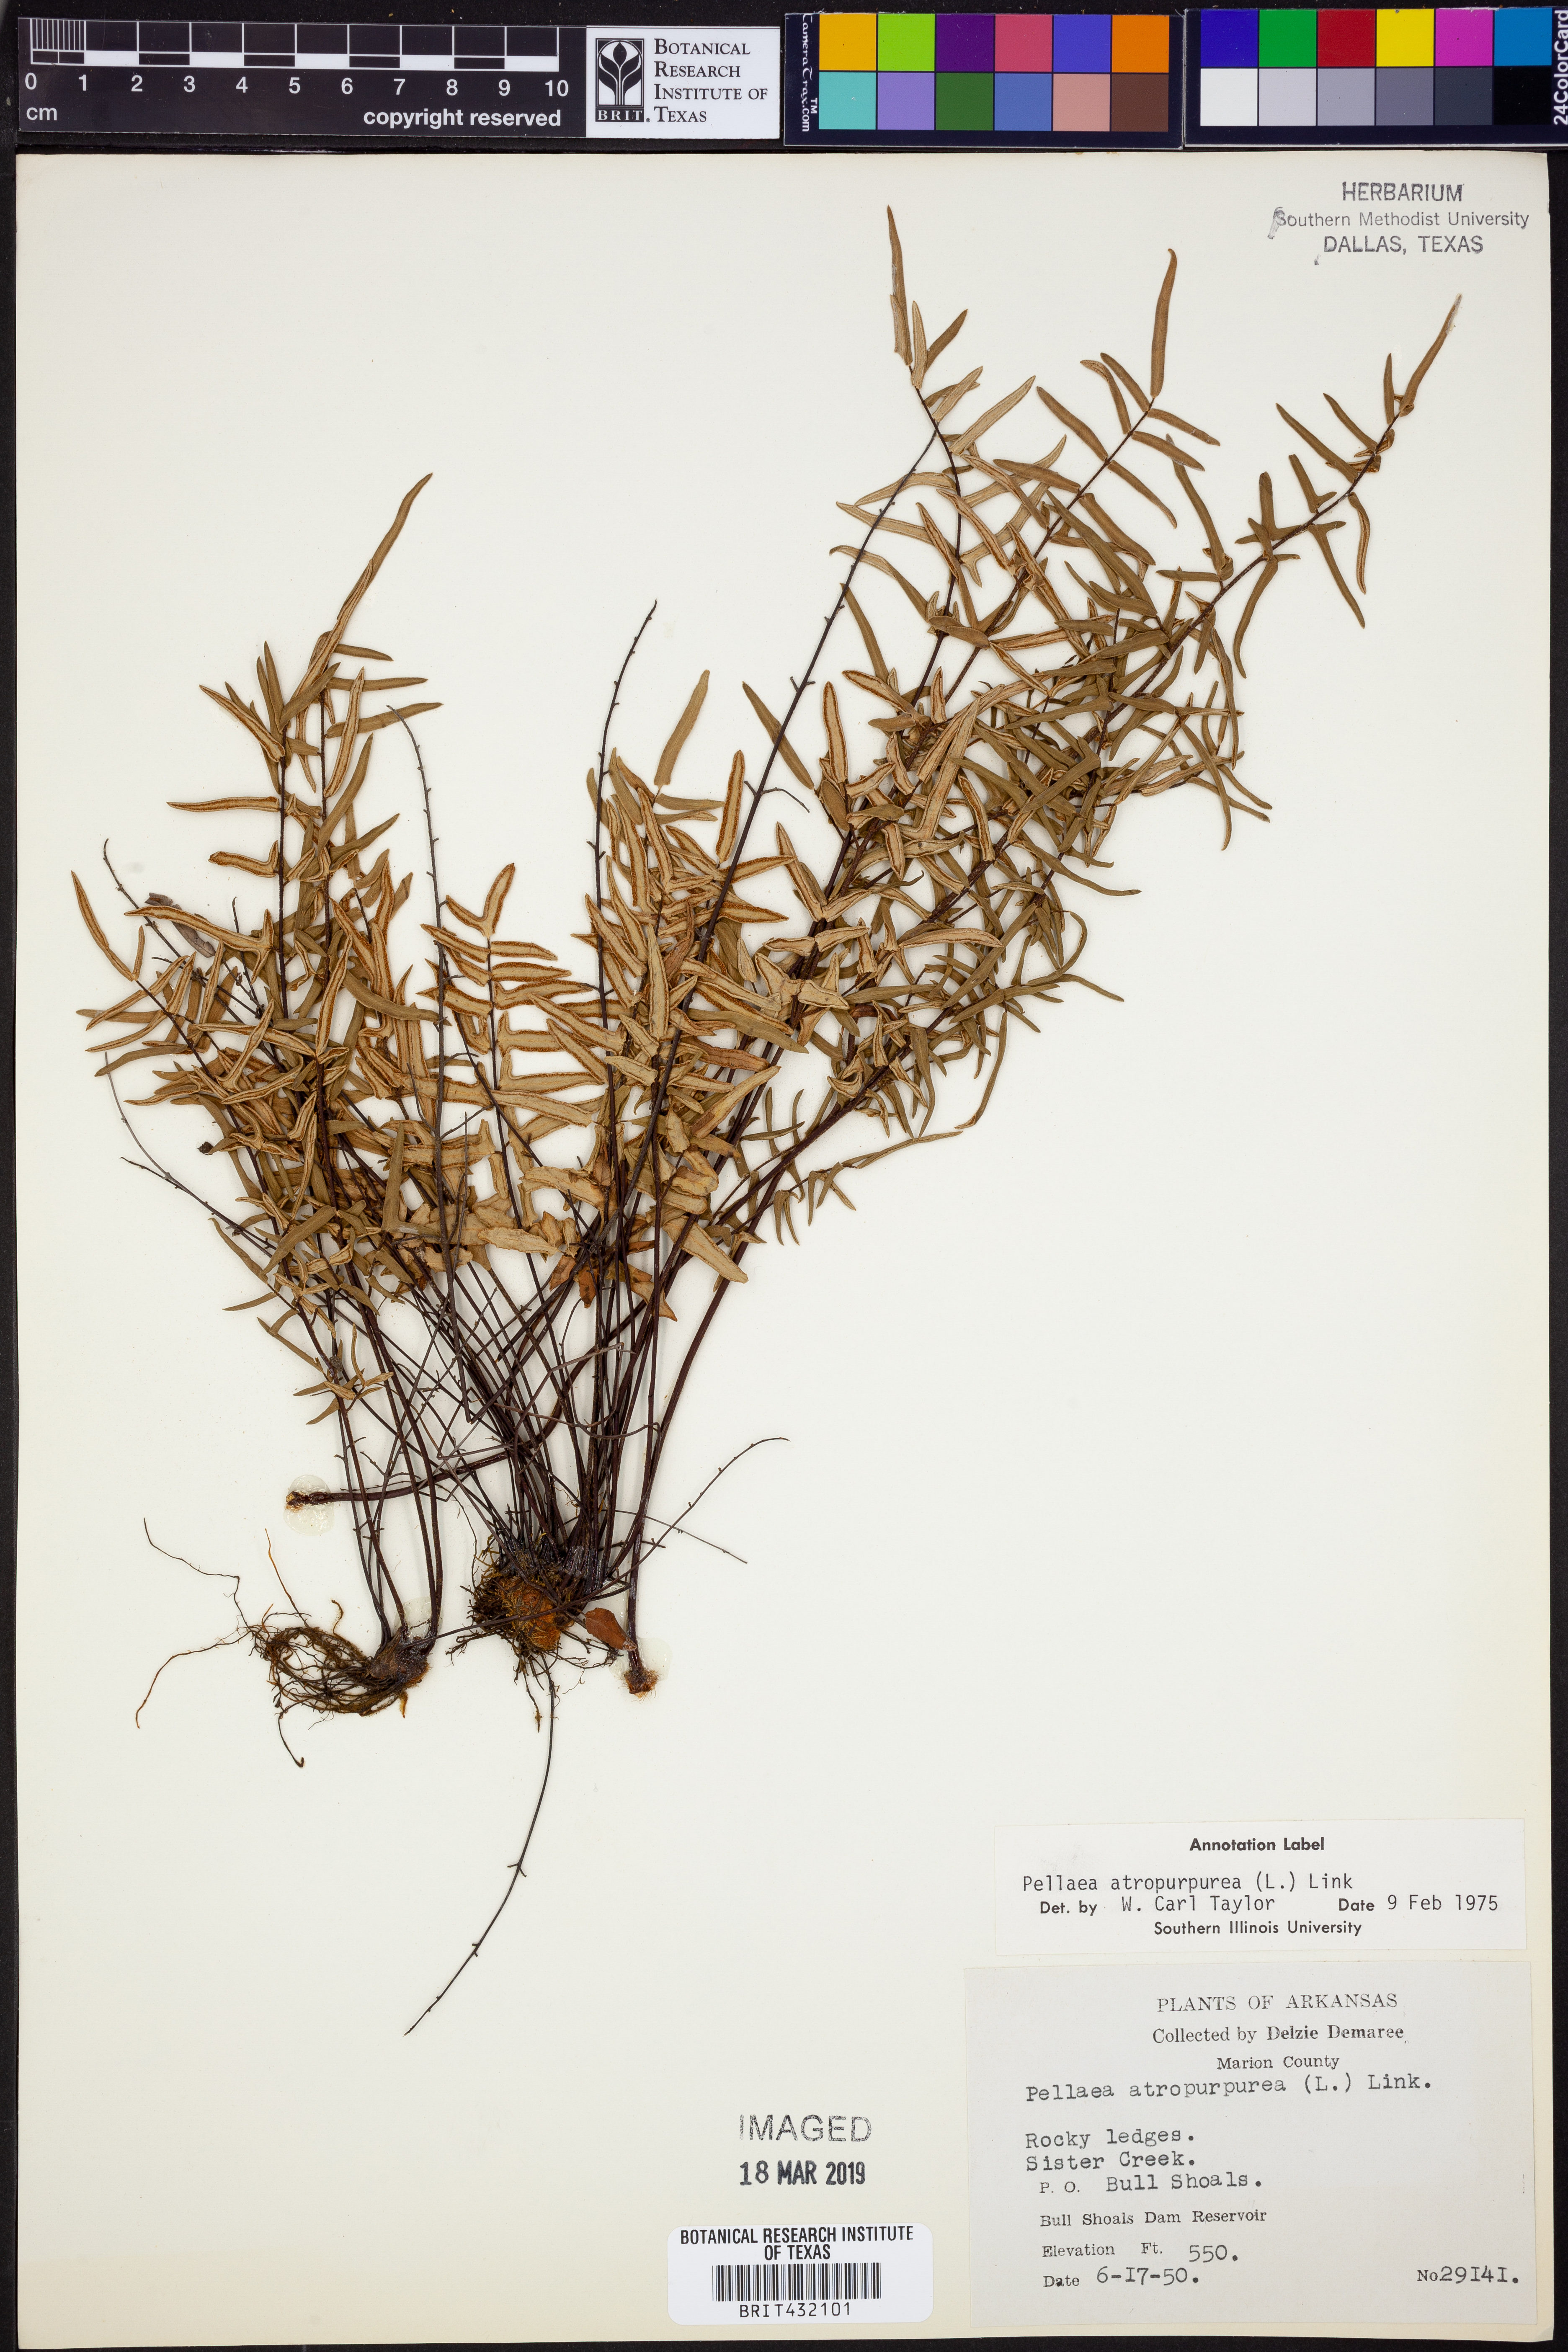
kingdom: Plantae
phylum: Tracheophyta
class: Polypodiopsida
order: Polypodiales
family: Pteridaceae
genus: Pellaea
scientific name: Pellaea atropurpurea
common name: Hairy cliffbrake
